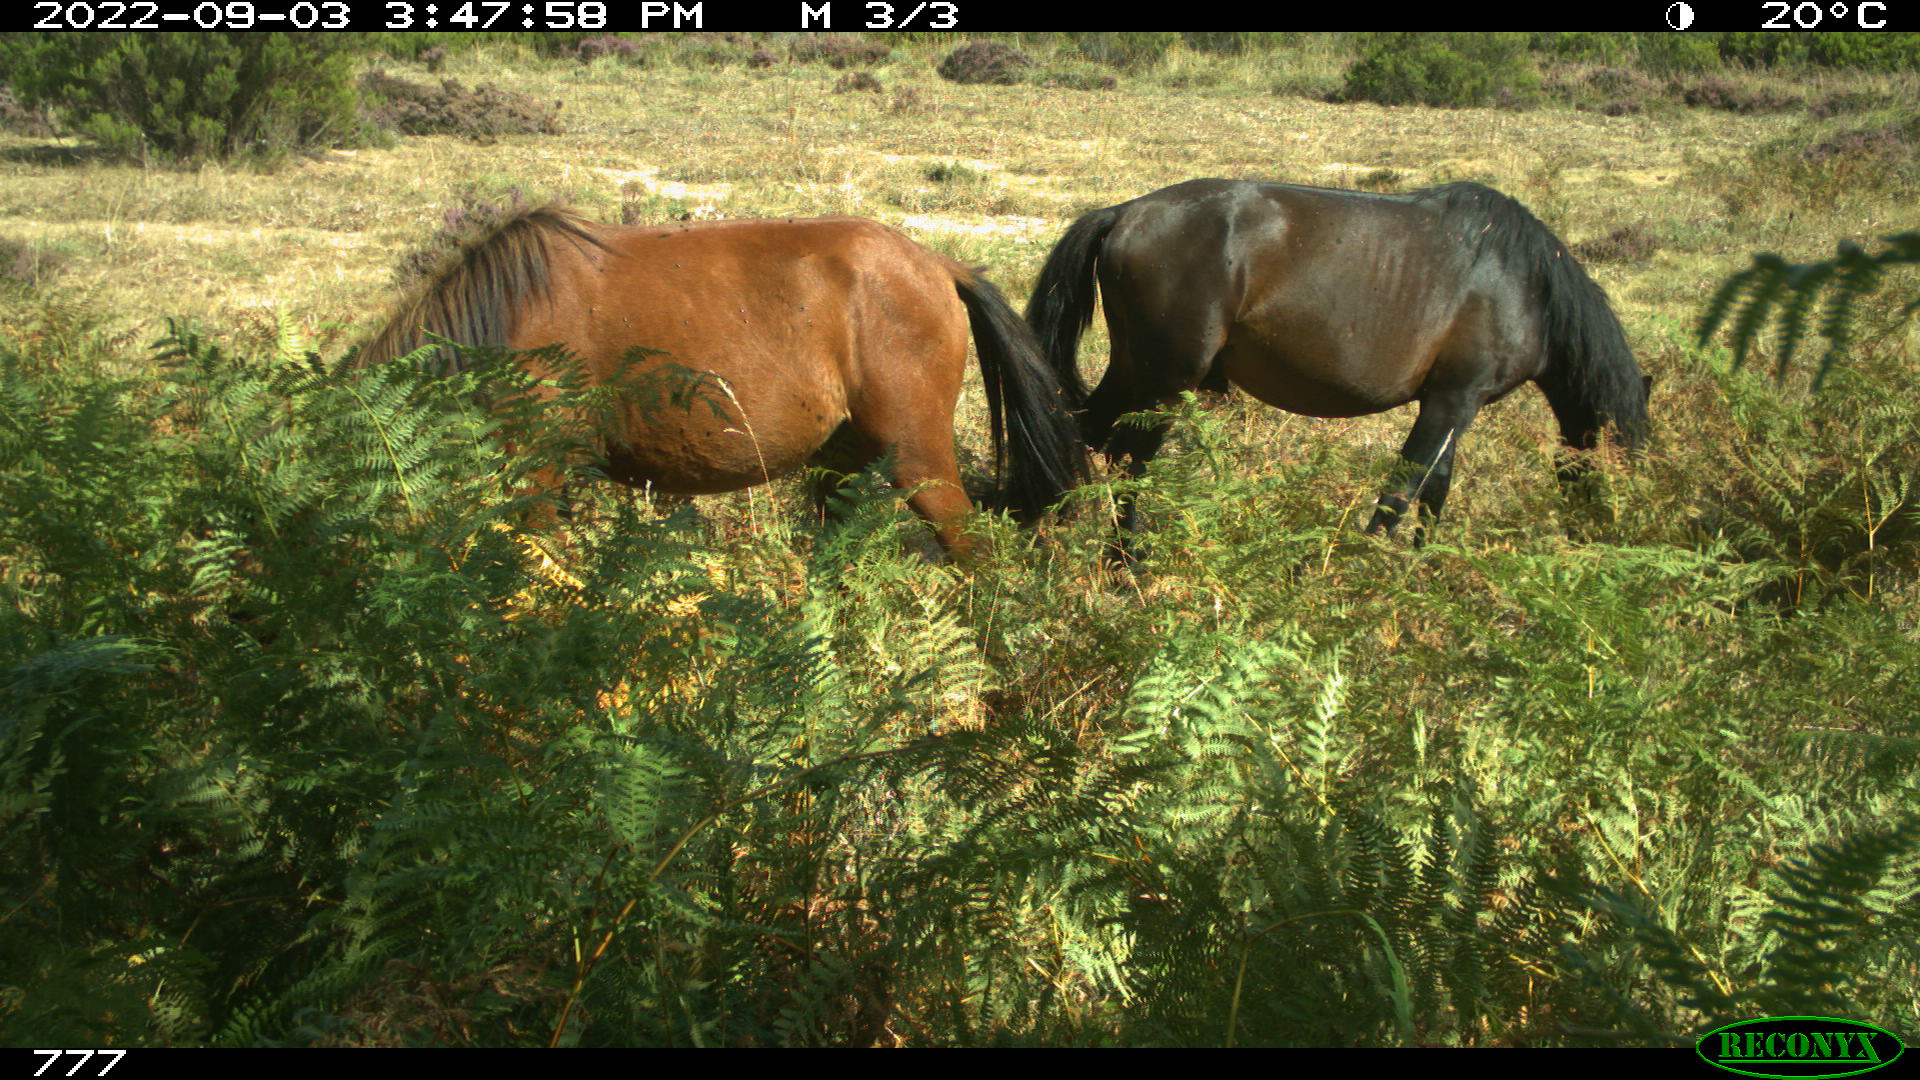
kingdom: Animalia
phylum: Chordata
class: Mammalia
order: Perissodactyla
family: Equidae
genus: Equus
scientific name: Equus caballus
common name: Horse
